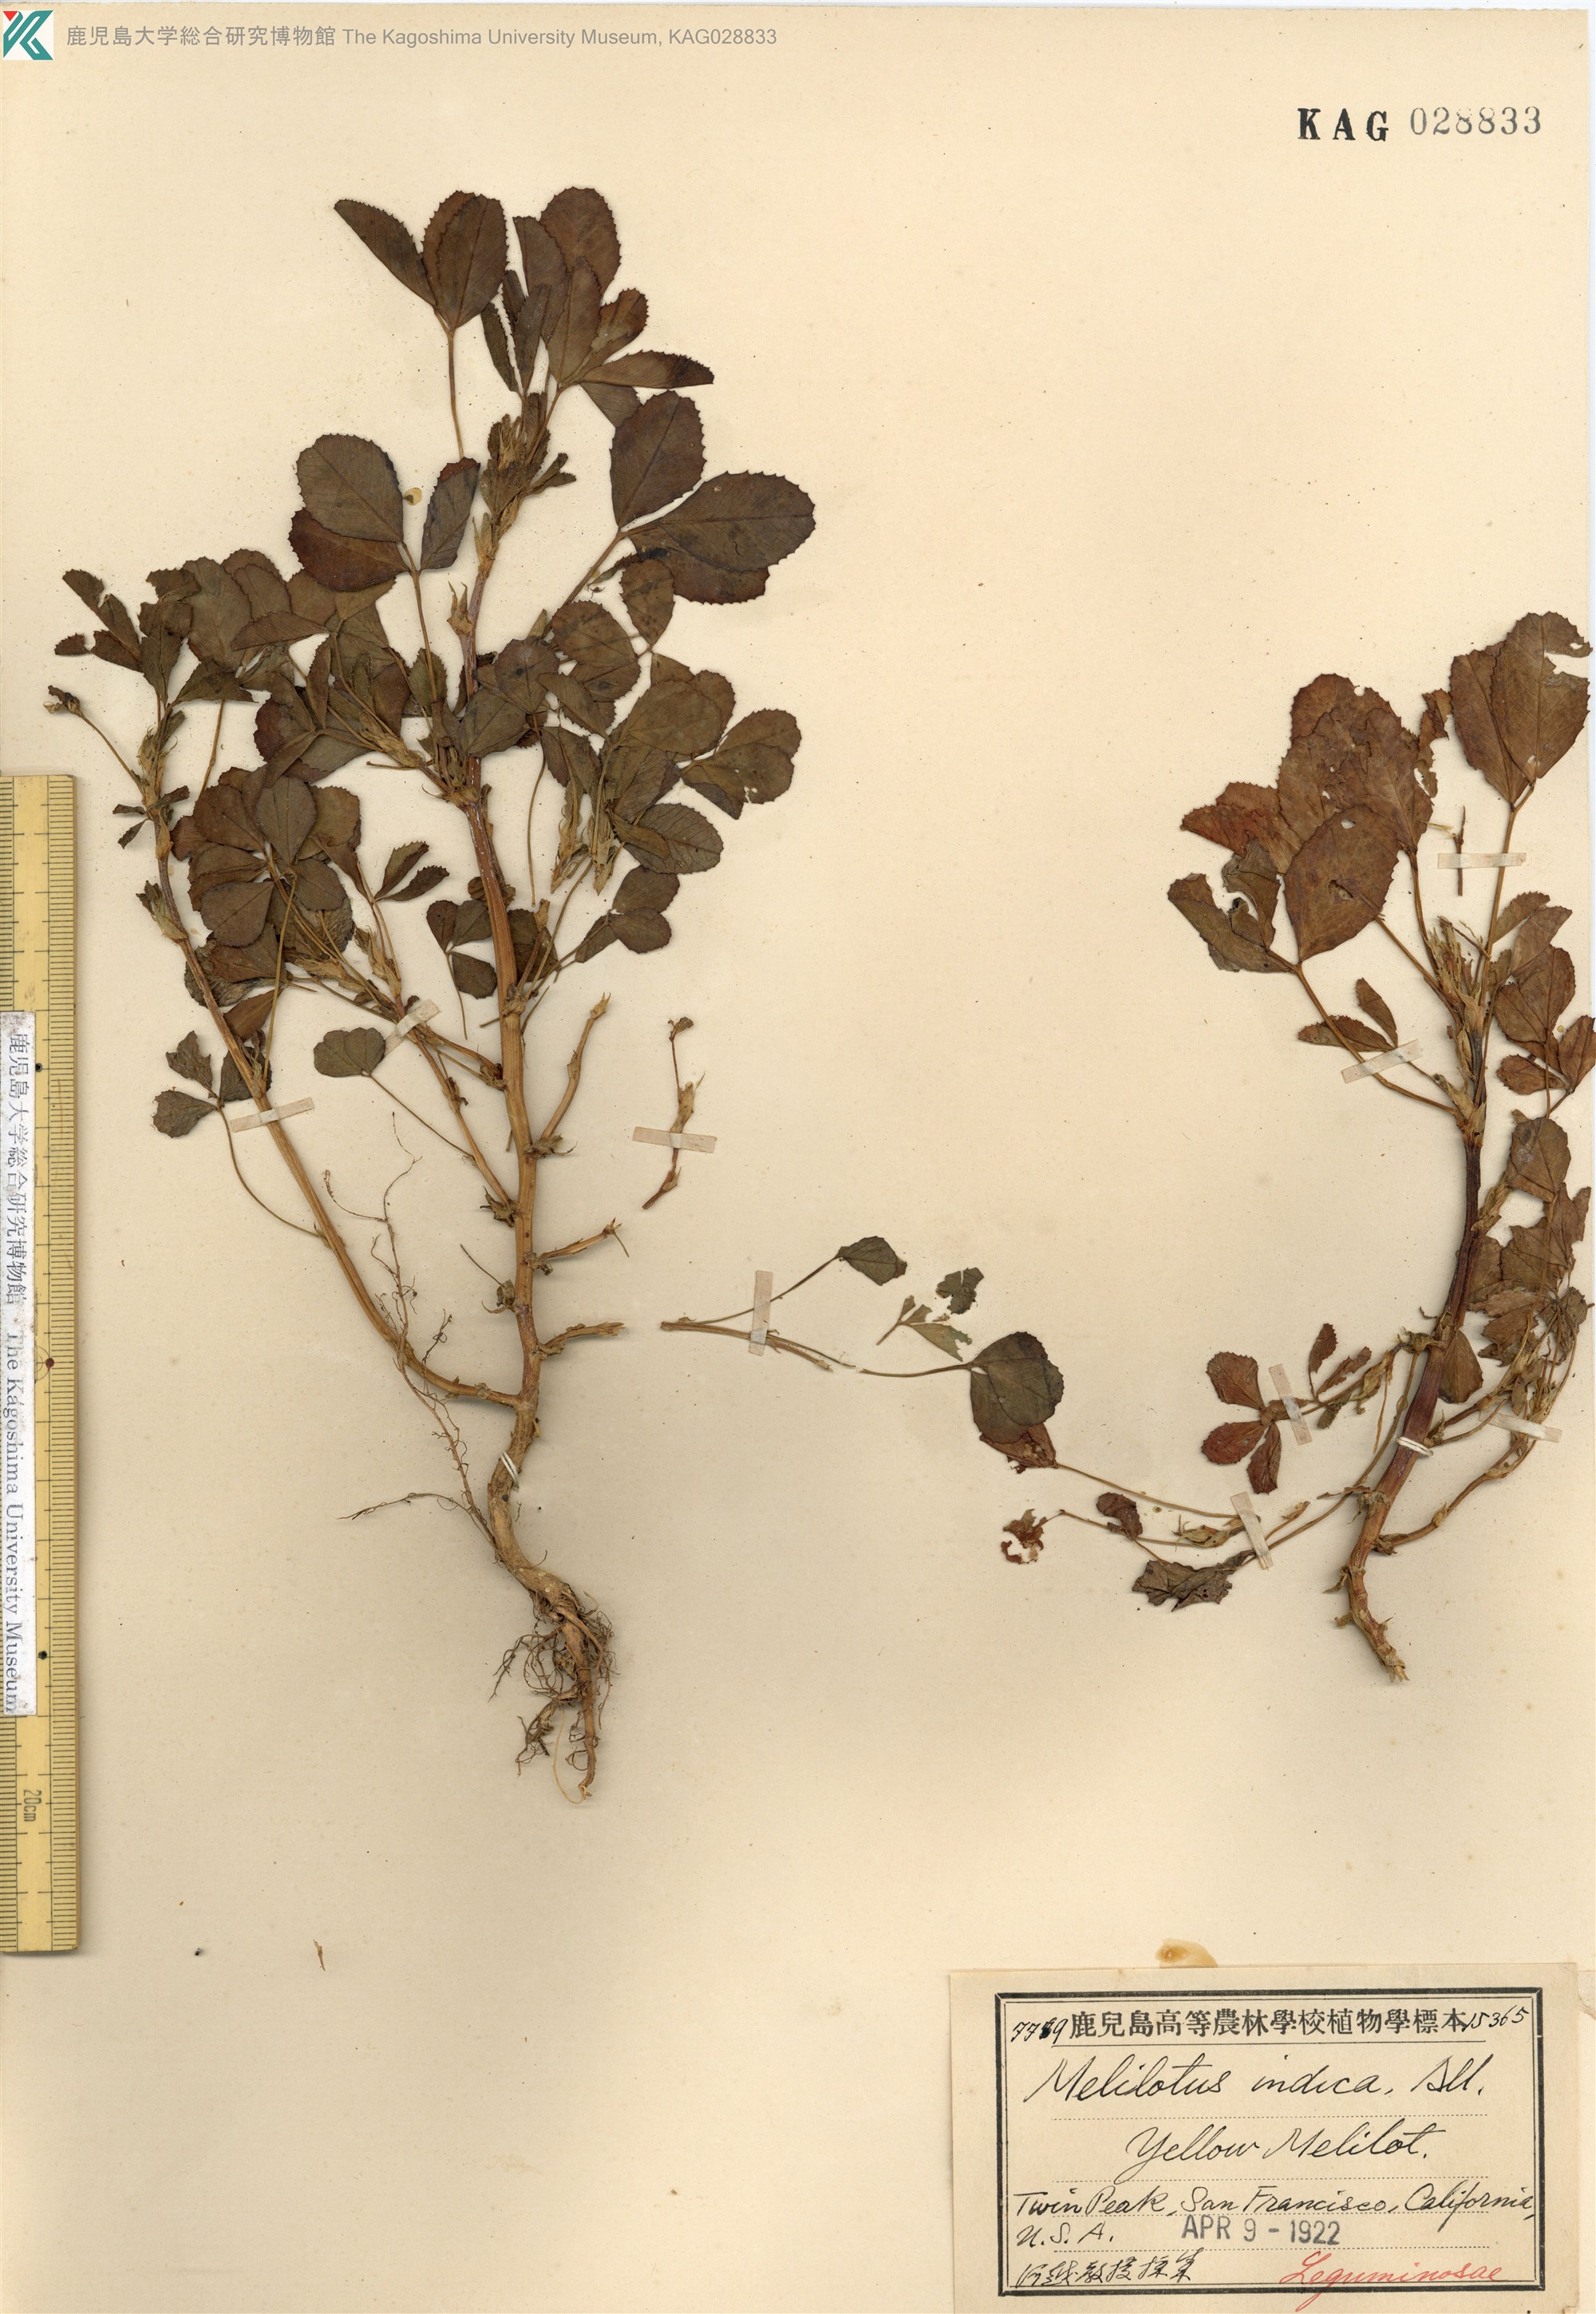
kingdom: Plantae
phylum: Tracheophyta
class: Magnoliopsida
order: Fabales
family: Fabaceae
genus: Melilotus
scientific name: Melilotus indicus
